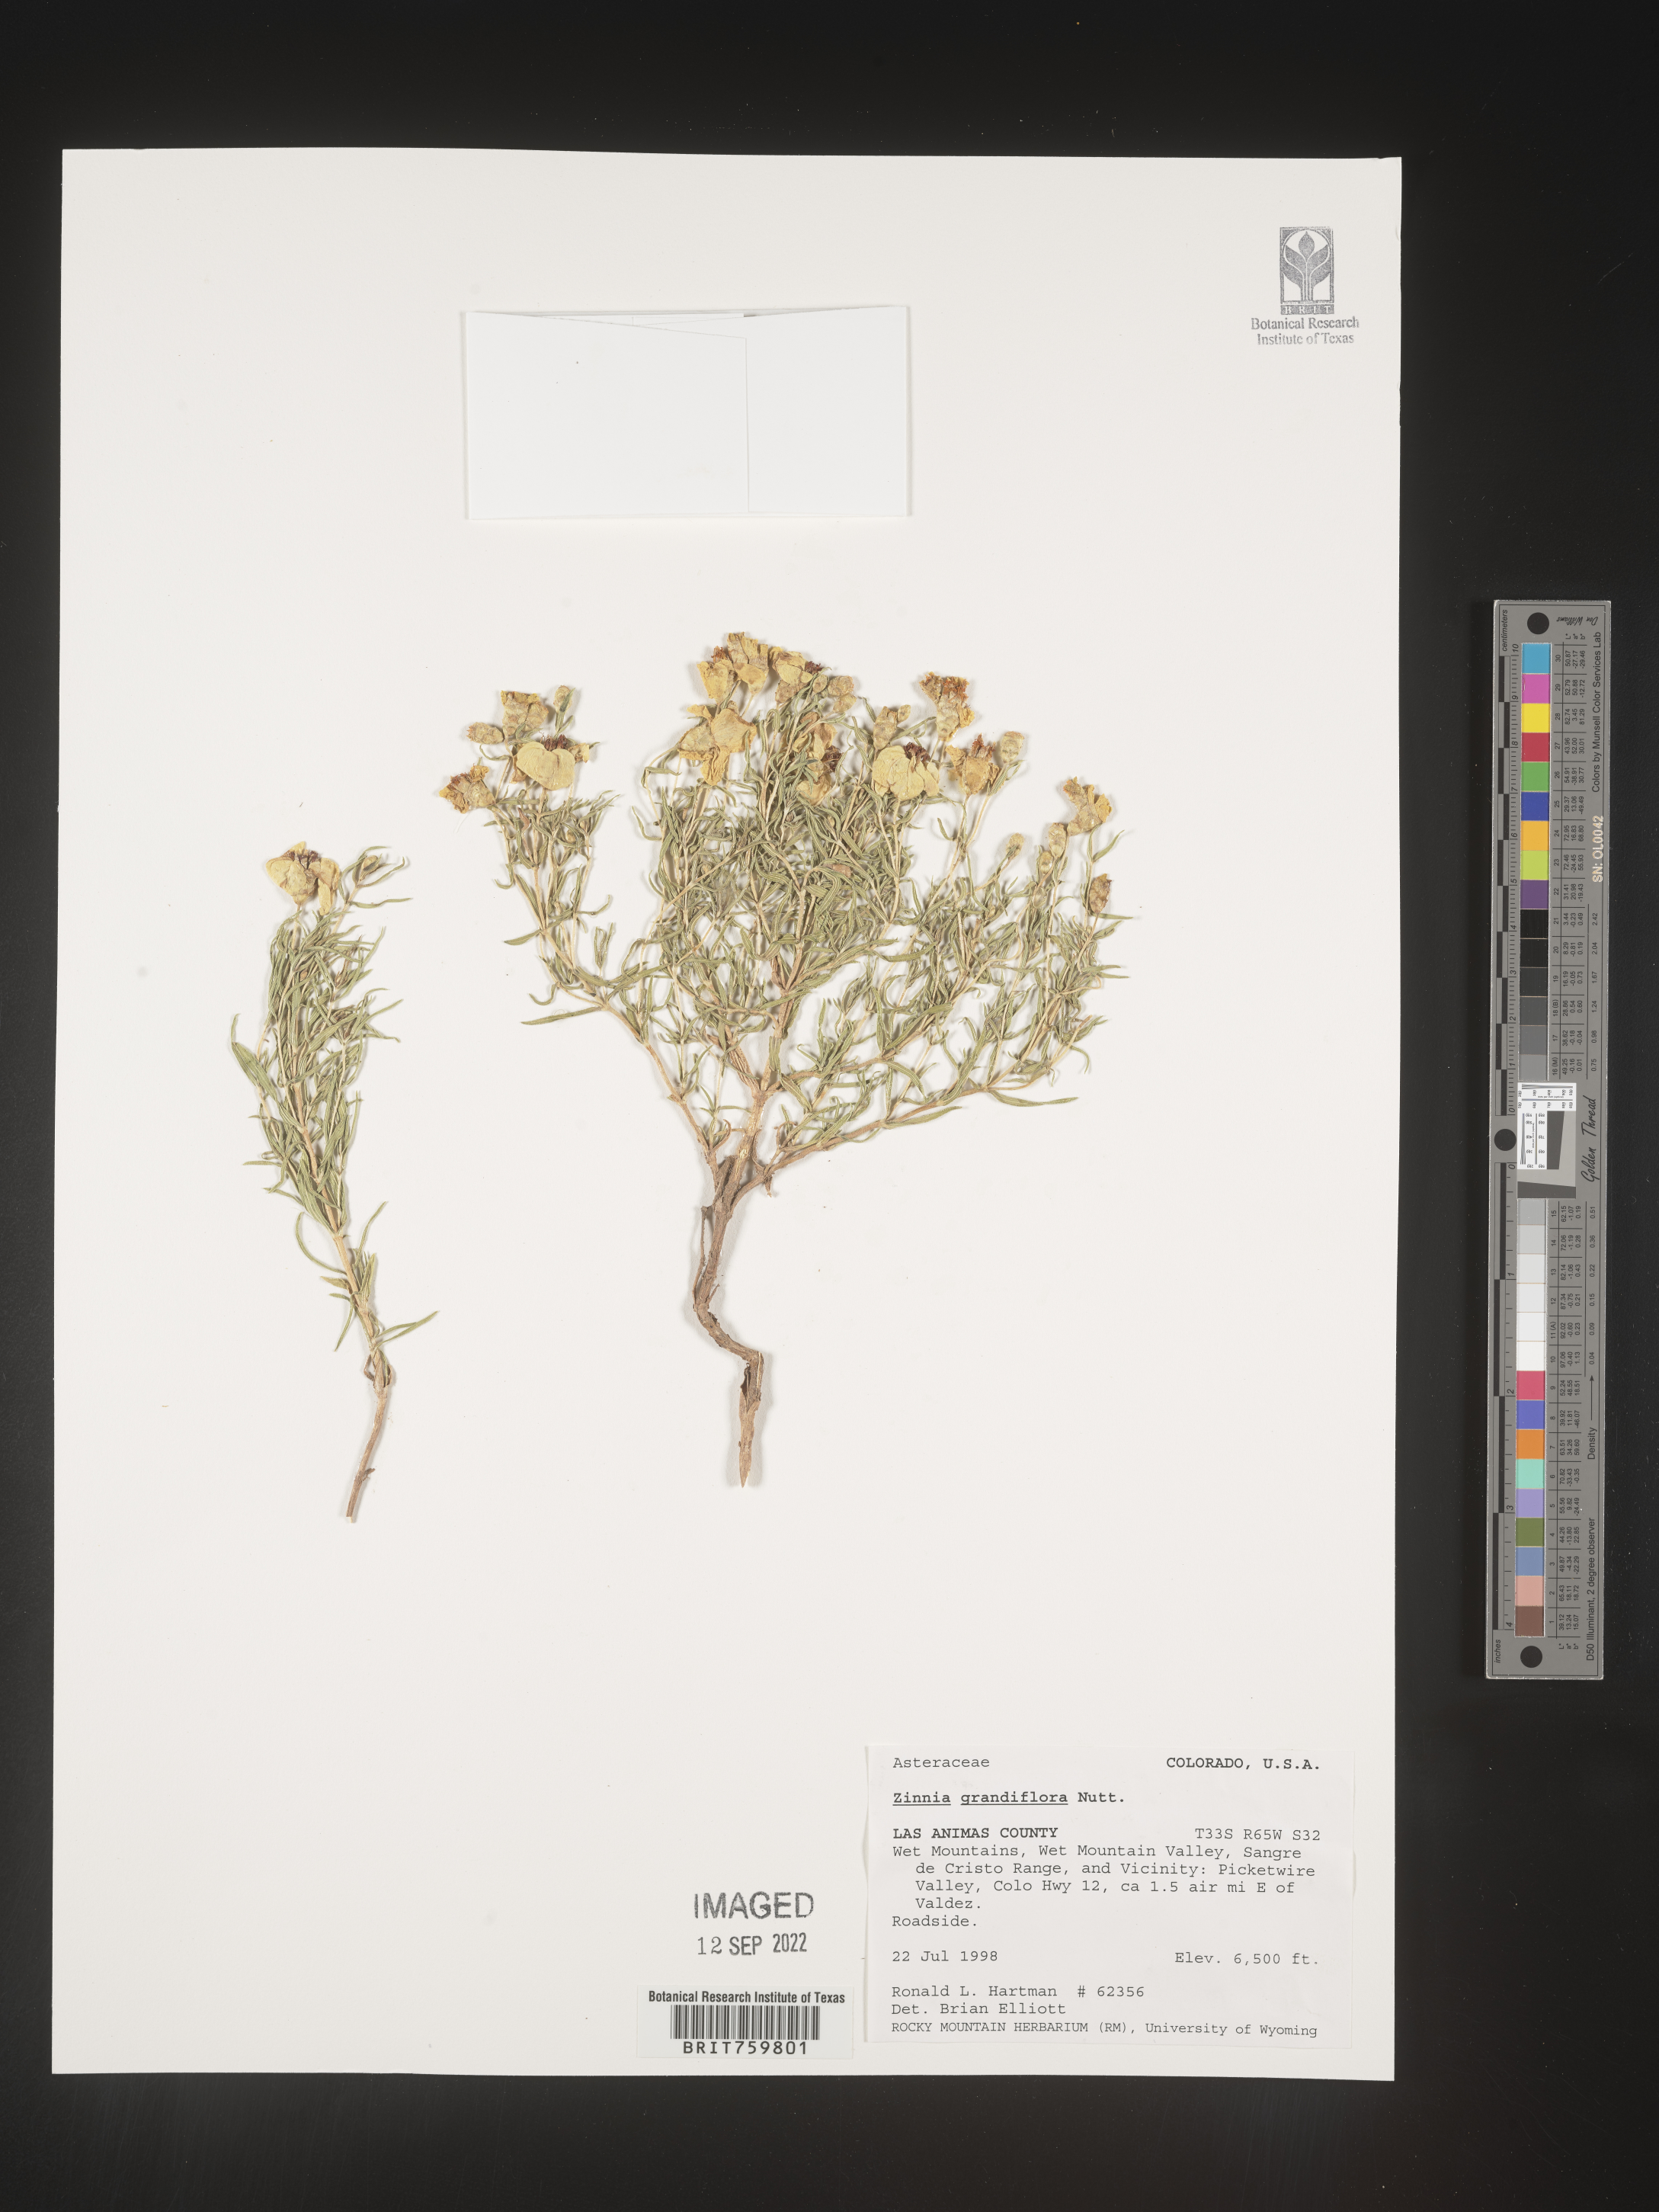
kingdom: Plantae
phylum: Tracheophyta
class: Magnoliopsida
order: Asterales
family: Asteraceae
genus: Zinnia
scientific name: Zinnia grandiflora
